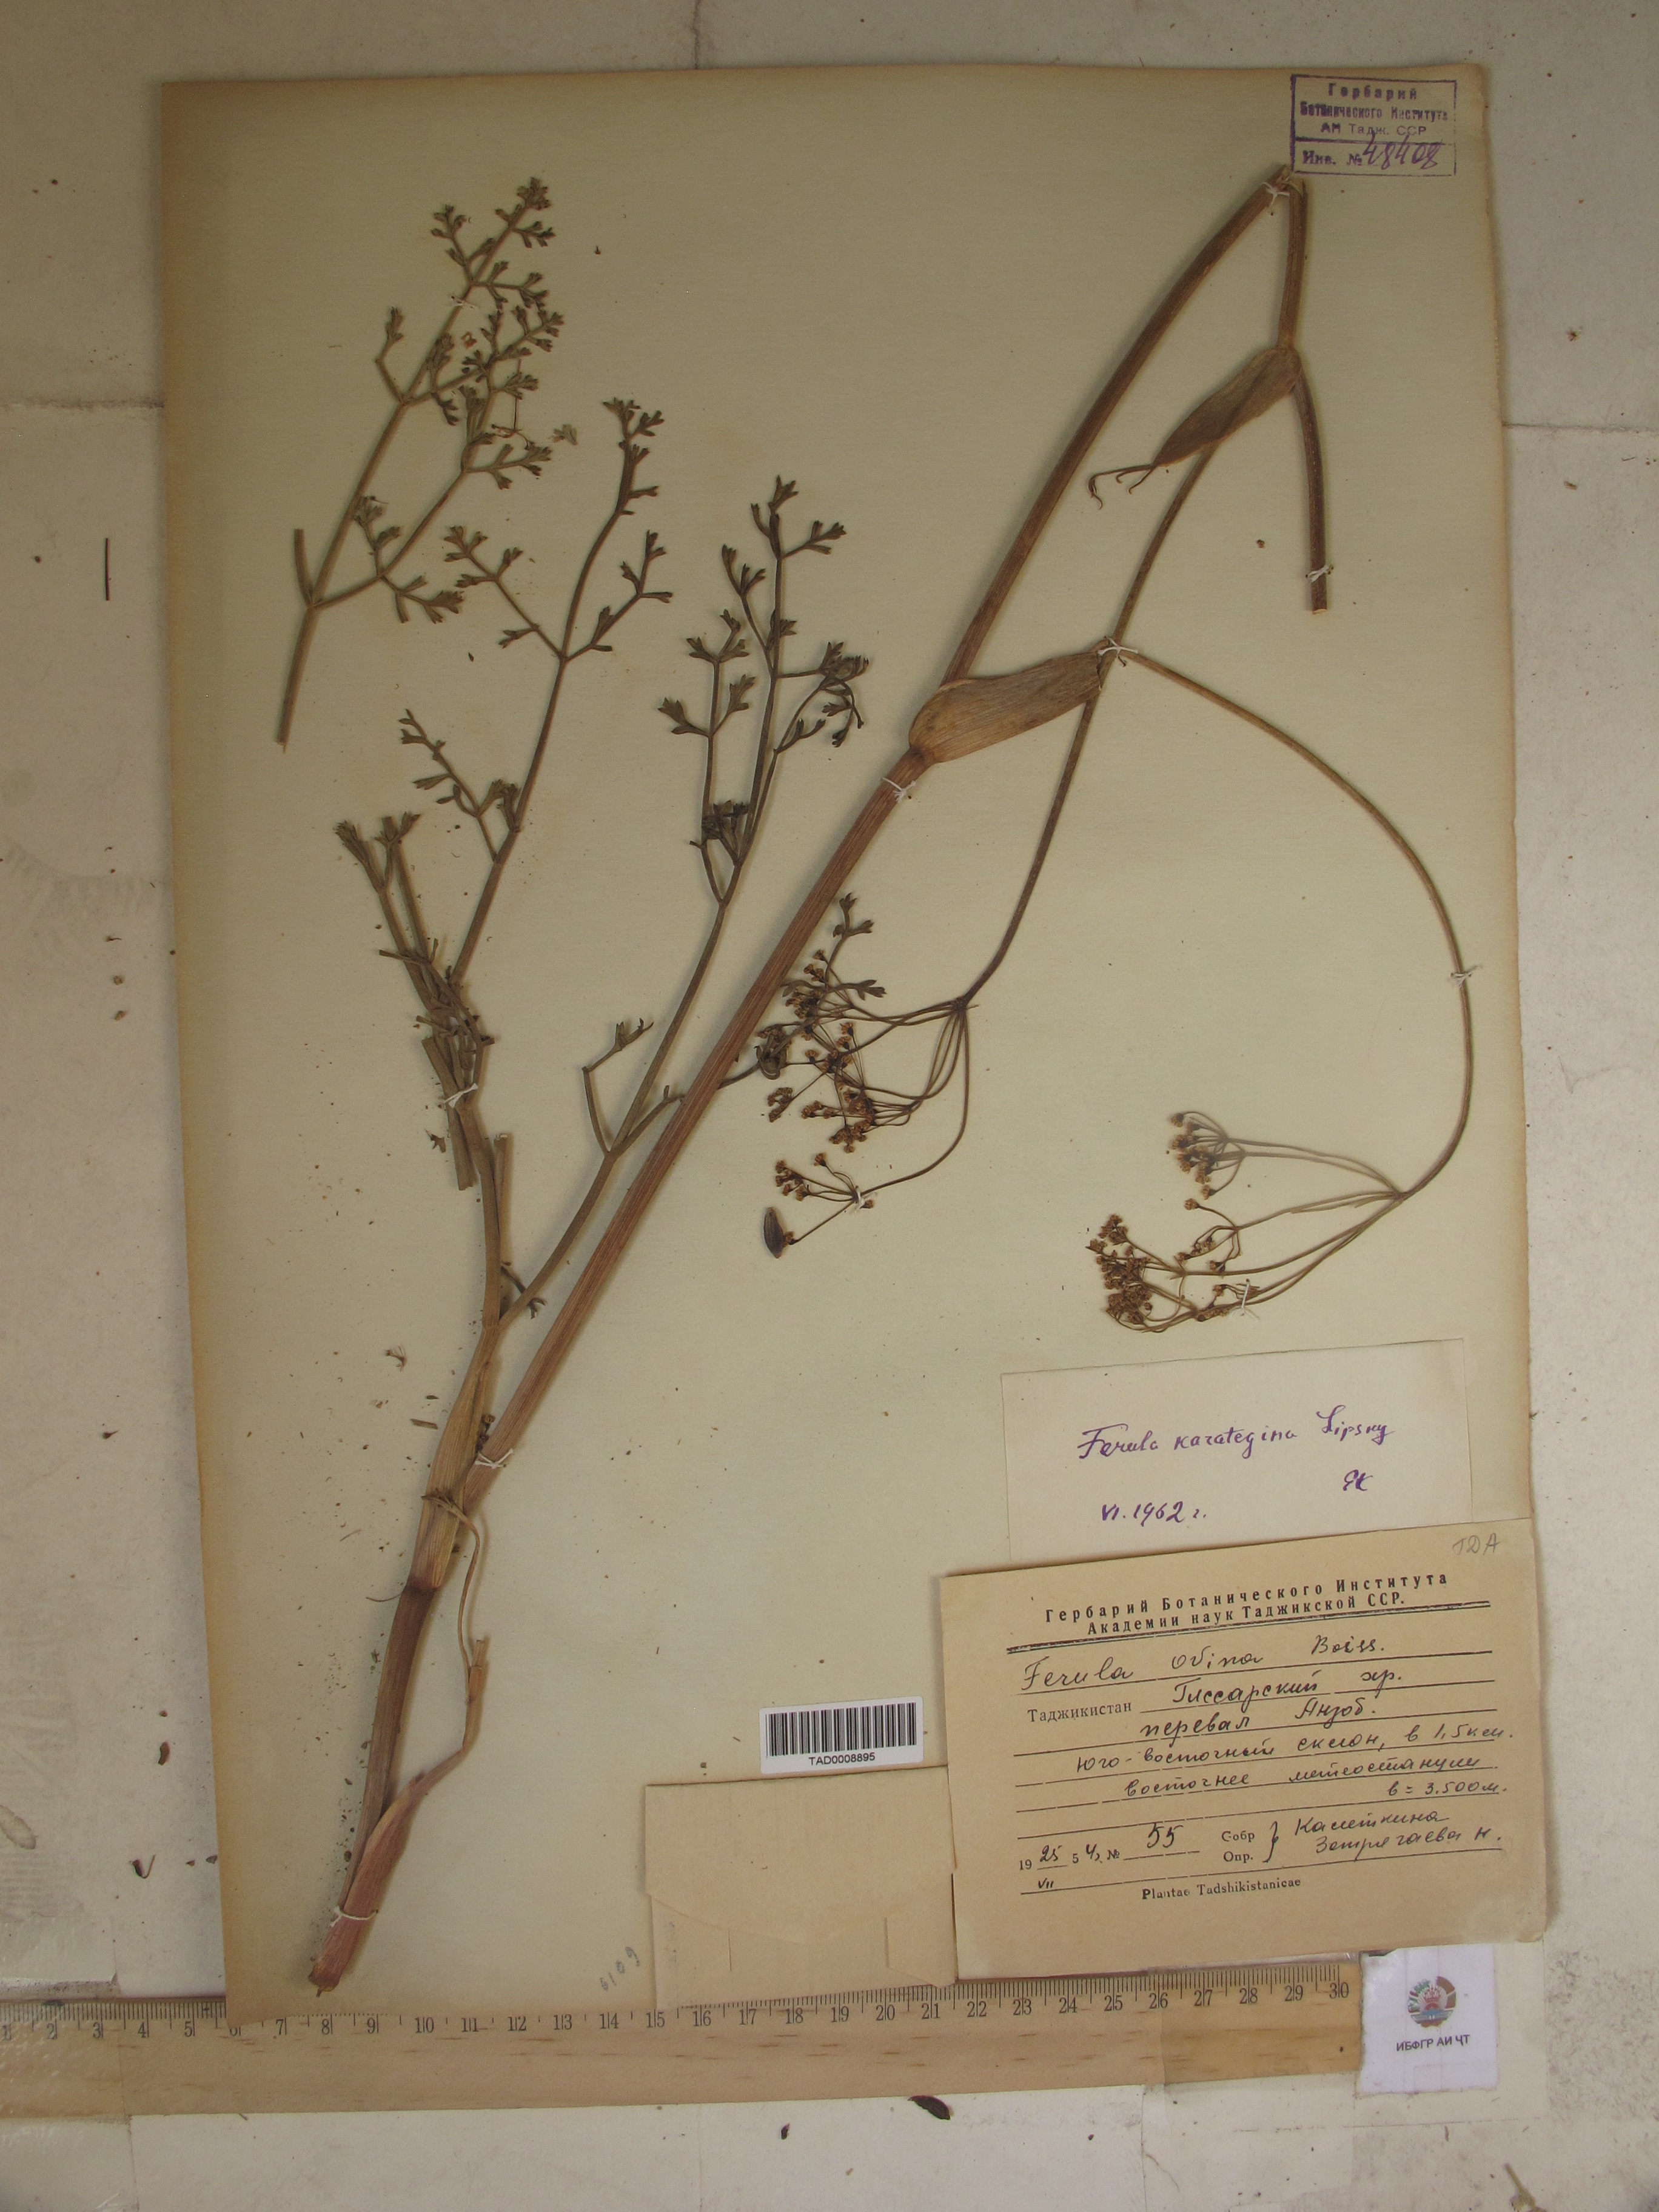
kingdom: Plantae
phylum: Tracheophyta
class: Magnoliopsida
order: Apiales
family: Apiaceae
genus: Ferula
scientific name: Ferula karategina
